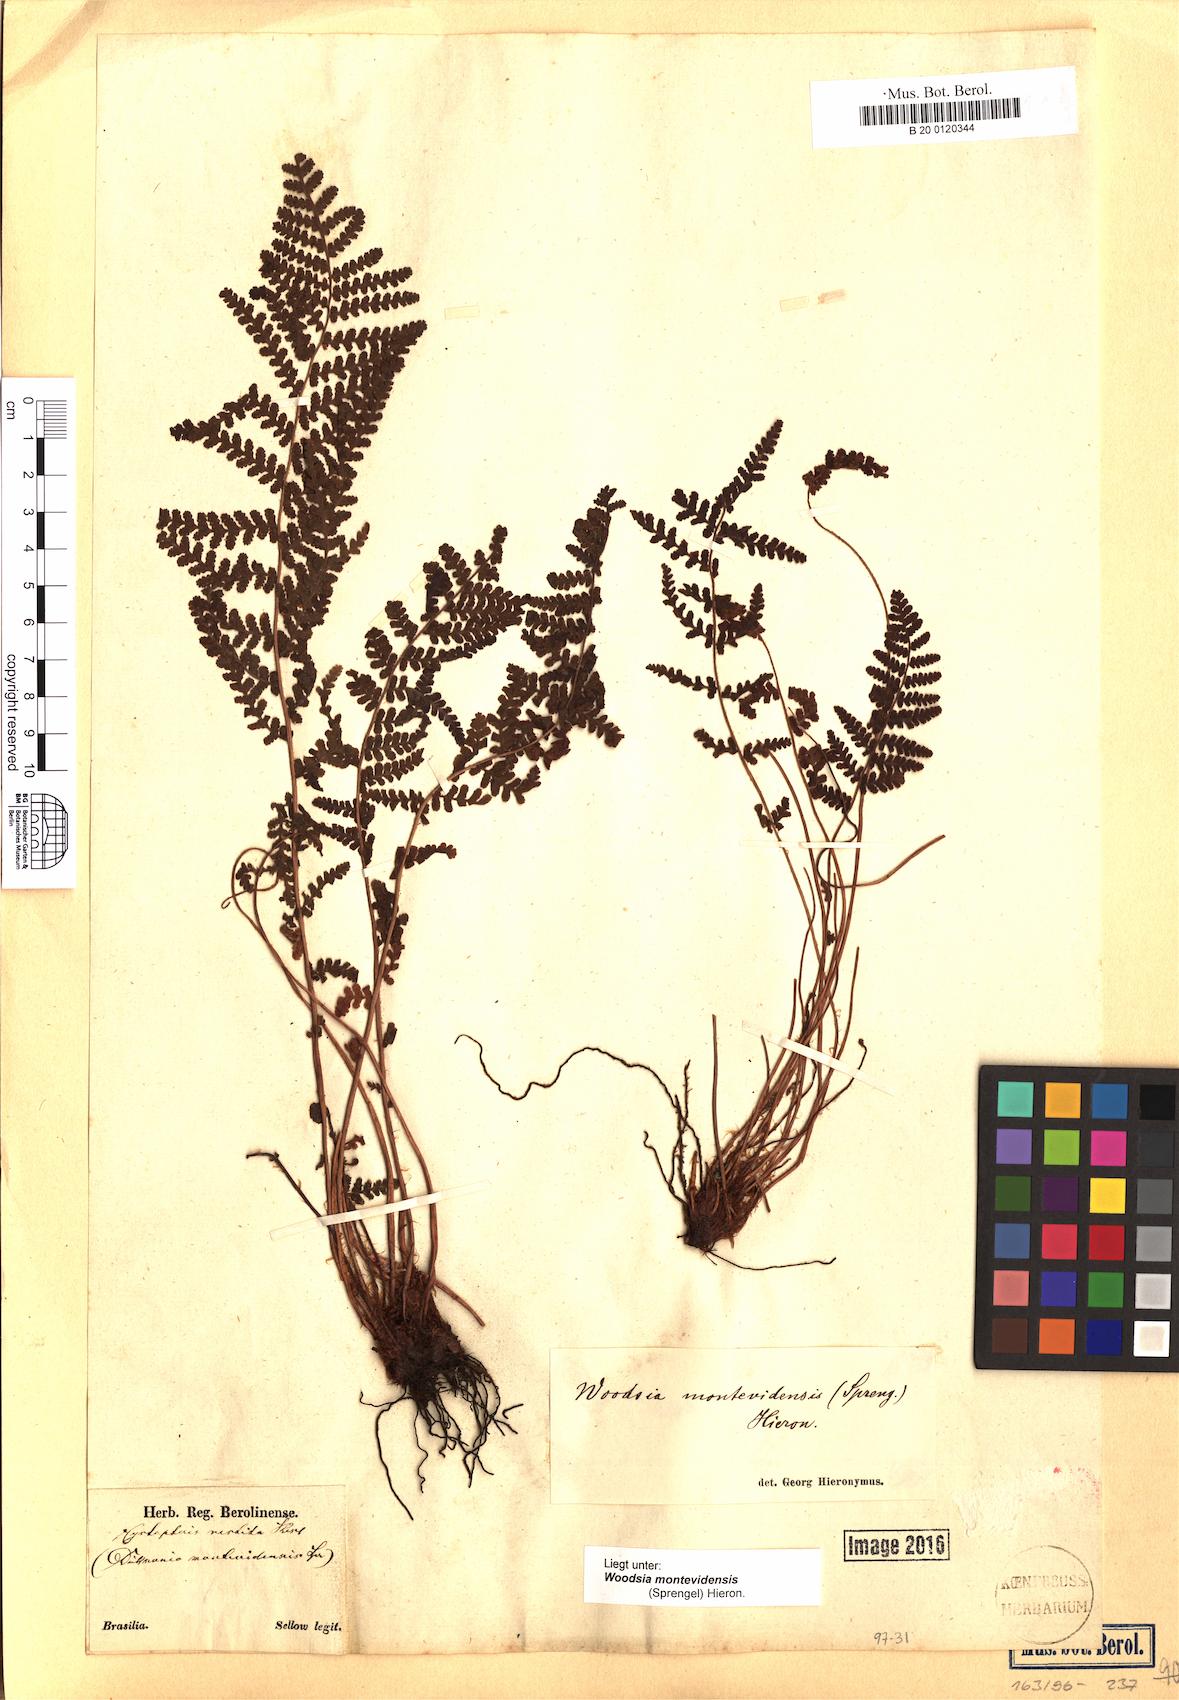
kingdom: Plantae
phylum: Tracheophyta
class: Polypodiopsida
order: Polypodiales
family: Woodsiaceae
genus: Physematium
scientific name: Physematium montevidense
